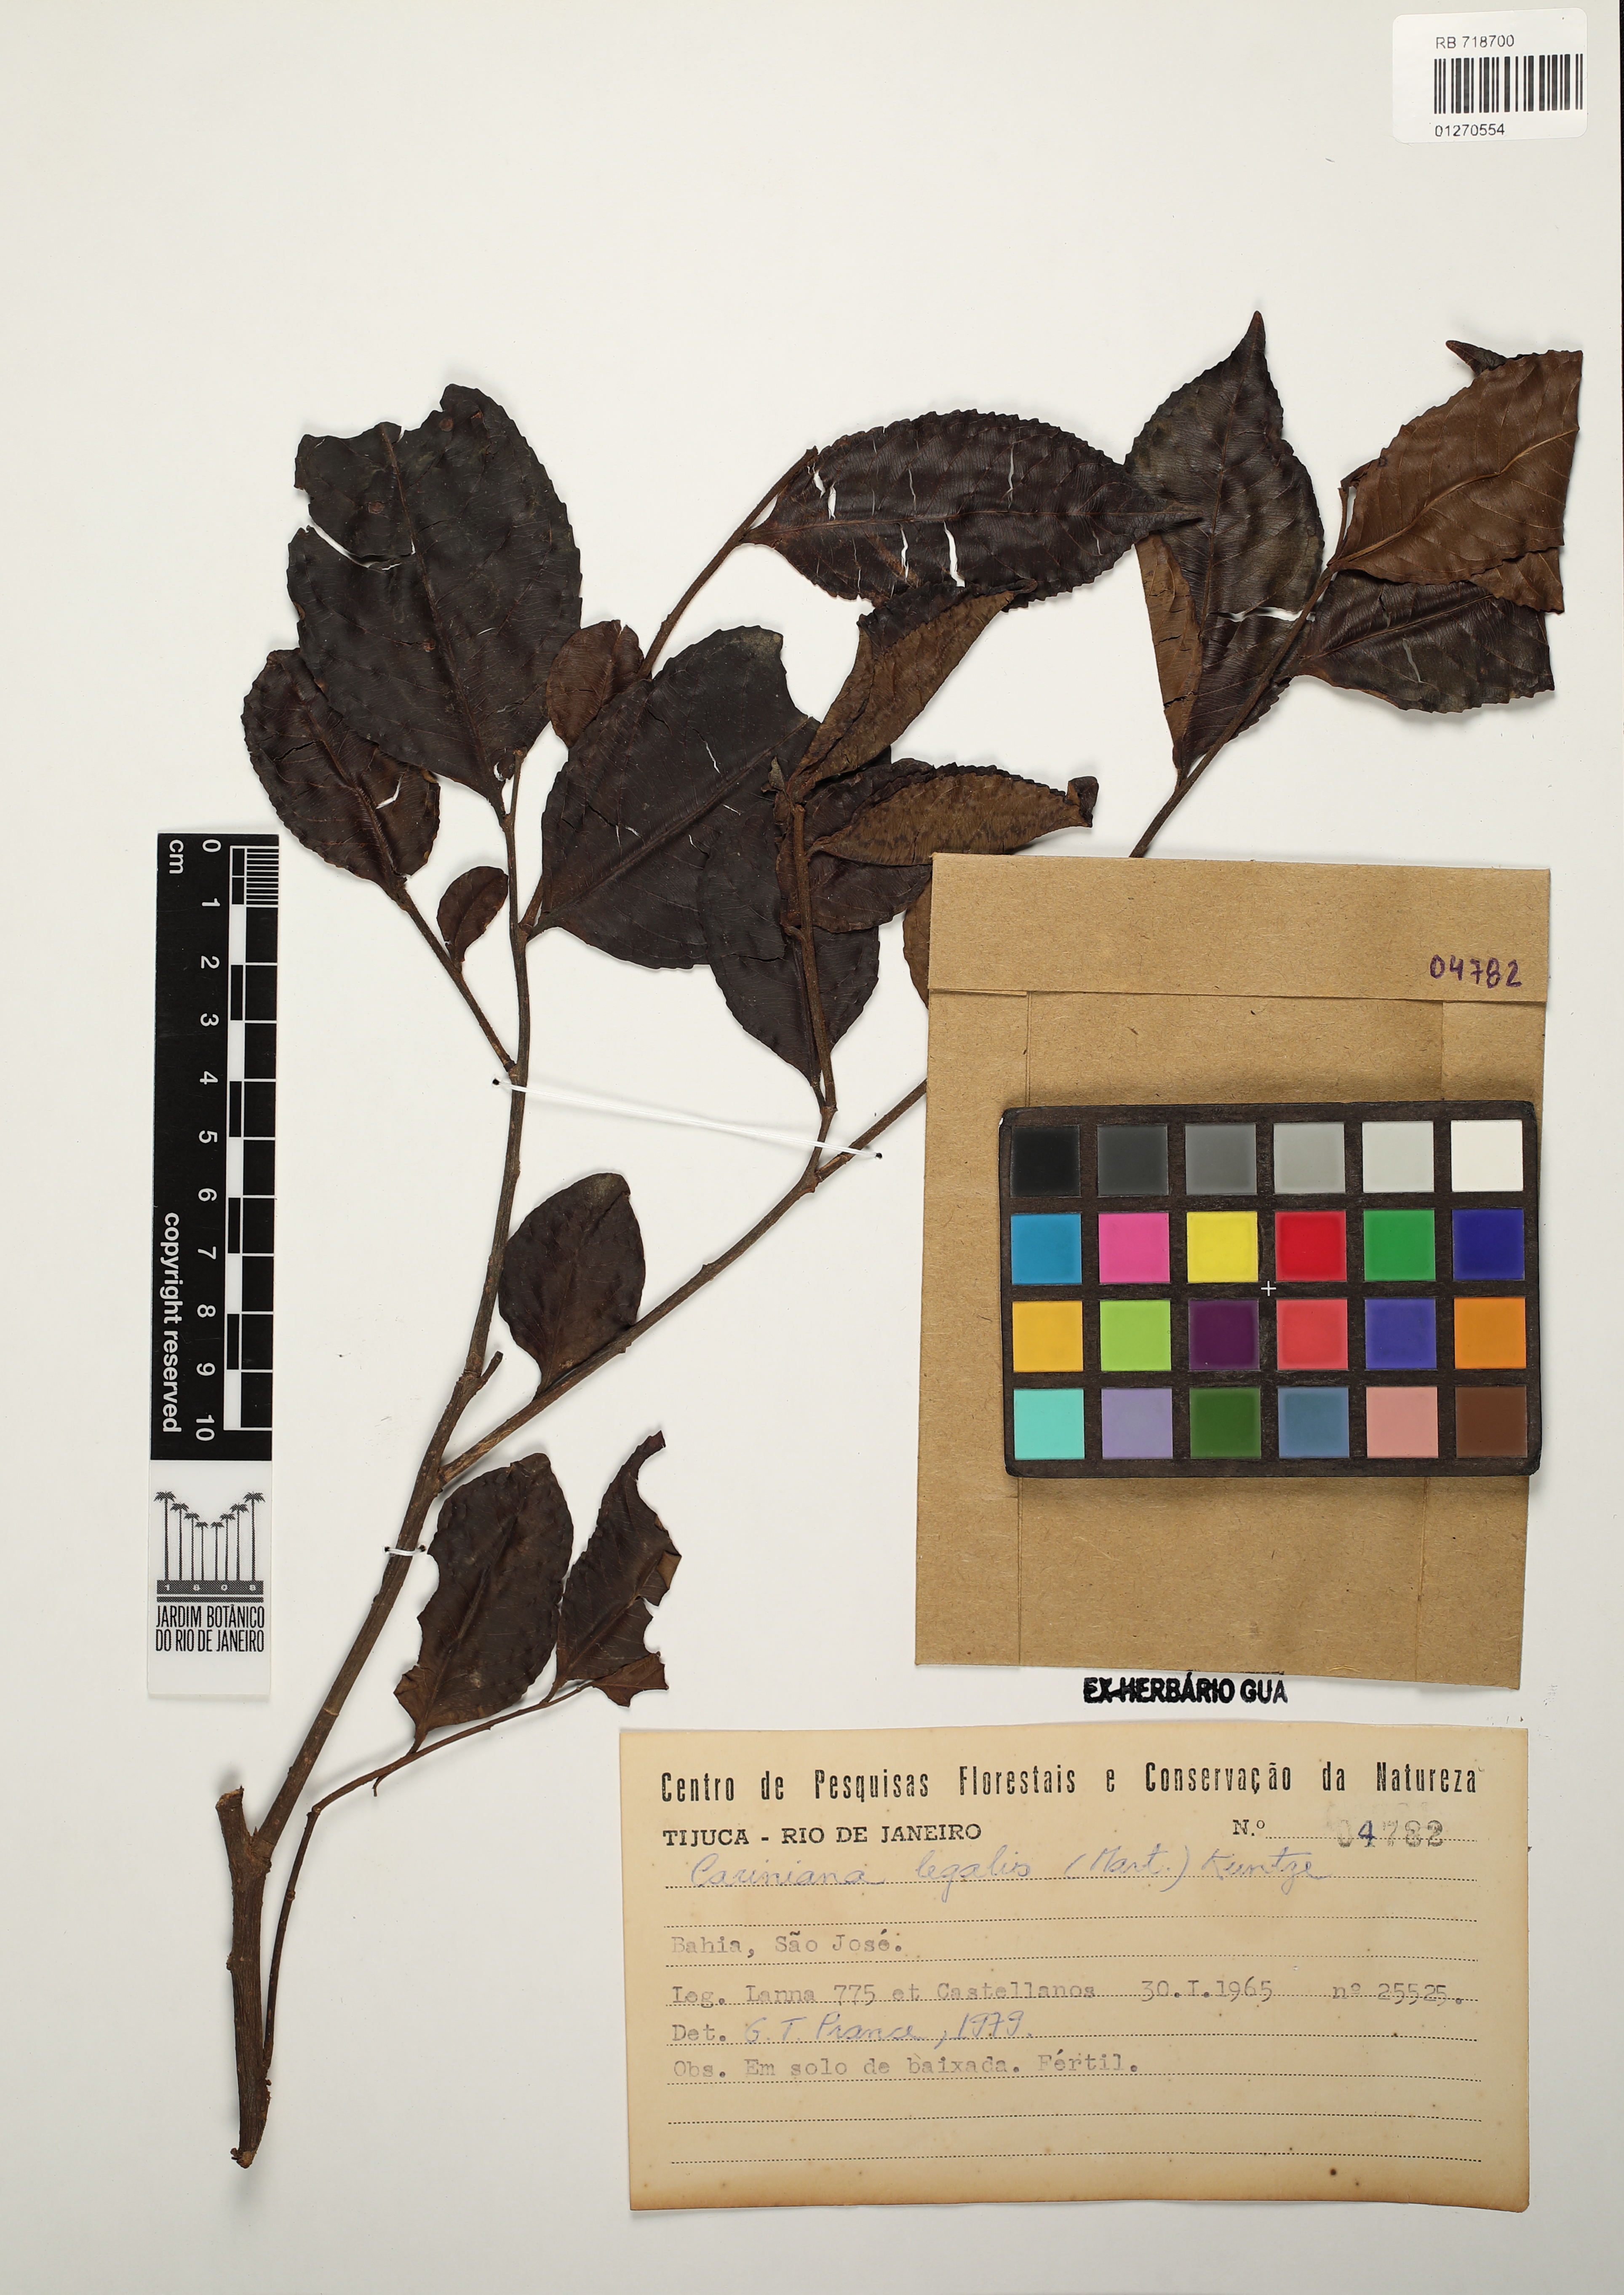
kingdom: Plantae
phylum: Tracheophyta
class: Magnoliopsida
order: Ericales
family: Lecythidaceae
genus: Cariniana
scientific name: Cariniana legalis
